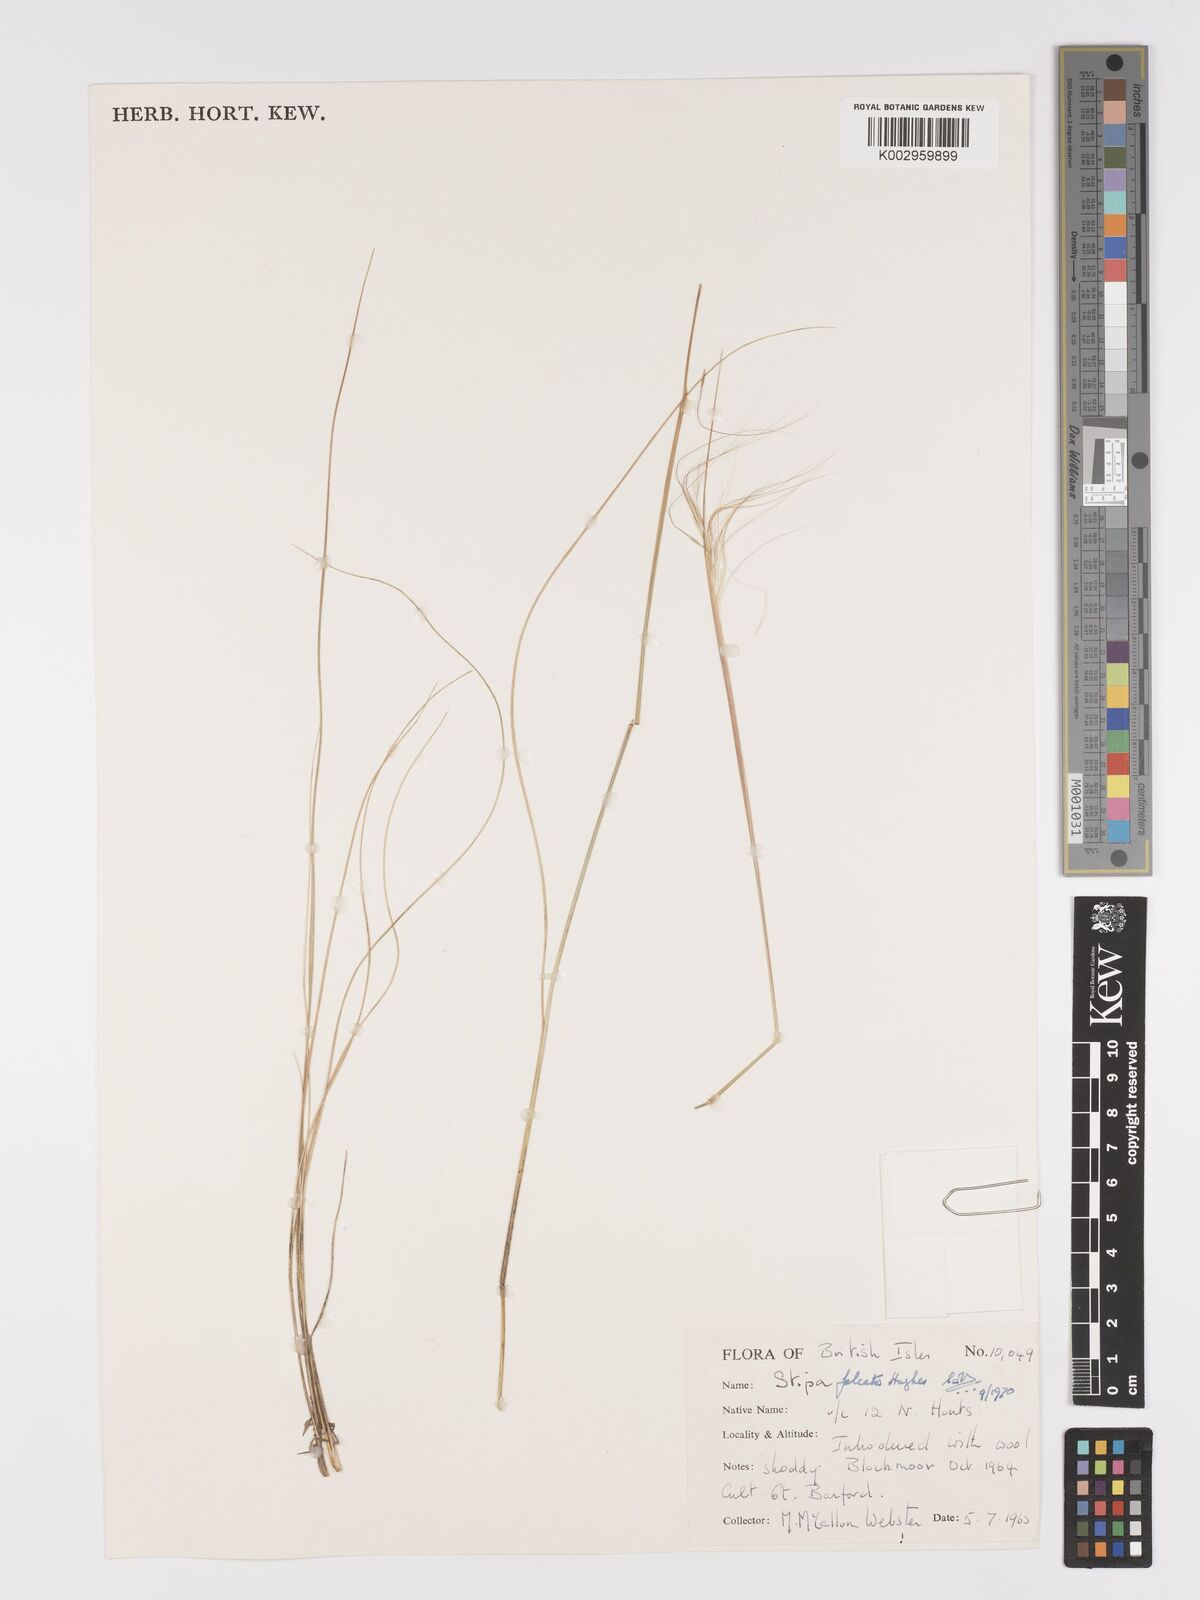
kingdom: Plantae
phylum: Tracheophyta
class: Liliopsida
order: Poales
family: Poaceae
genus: Austrostipa
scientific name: Austrostipa scabra
